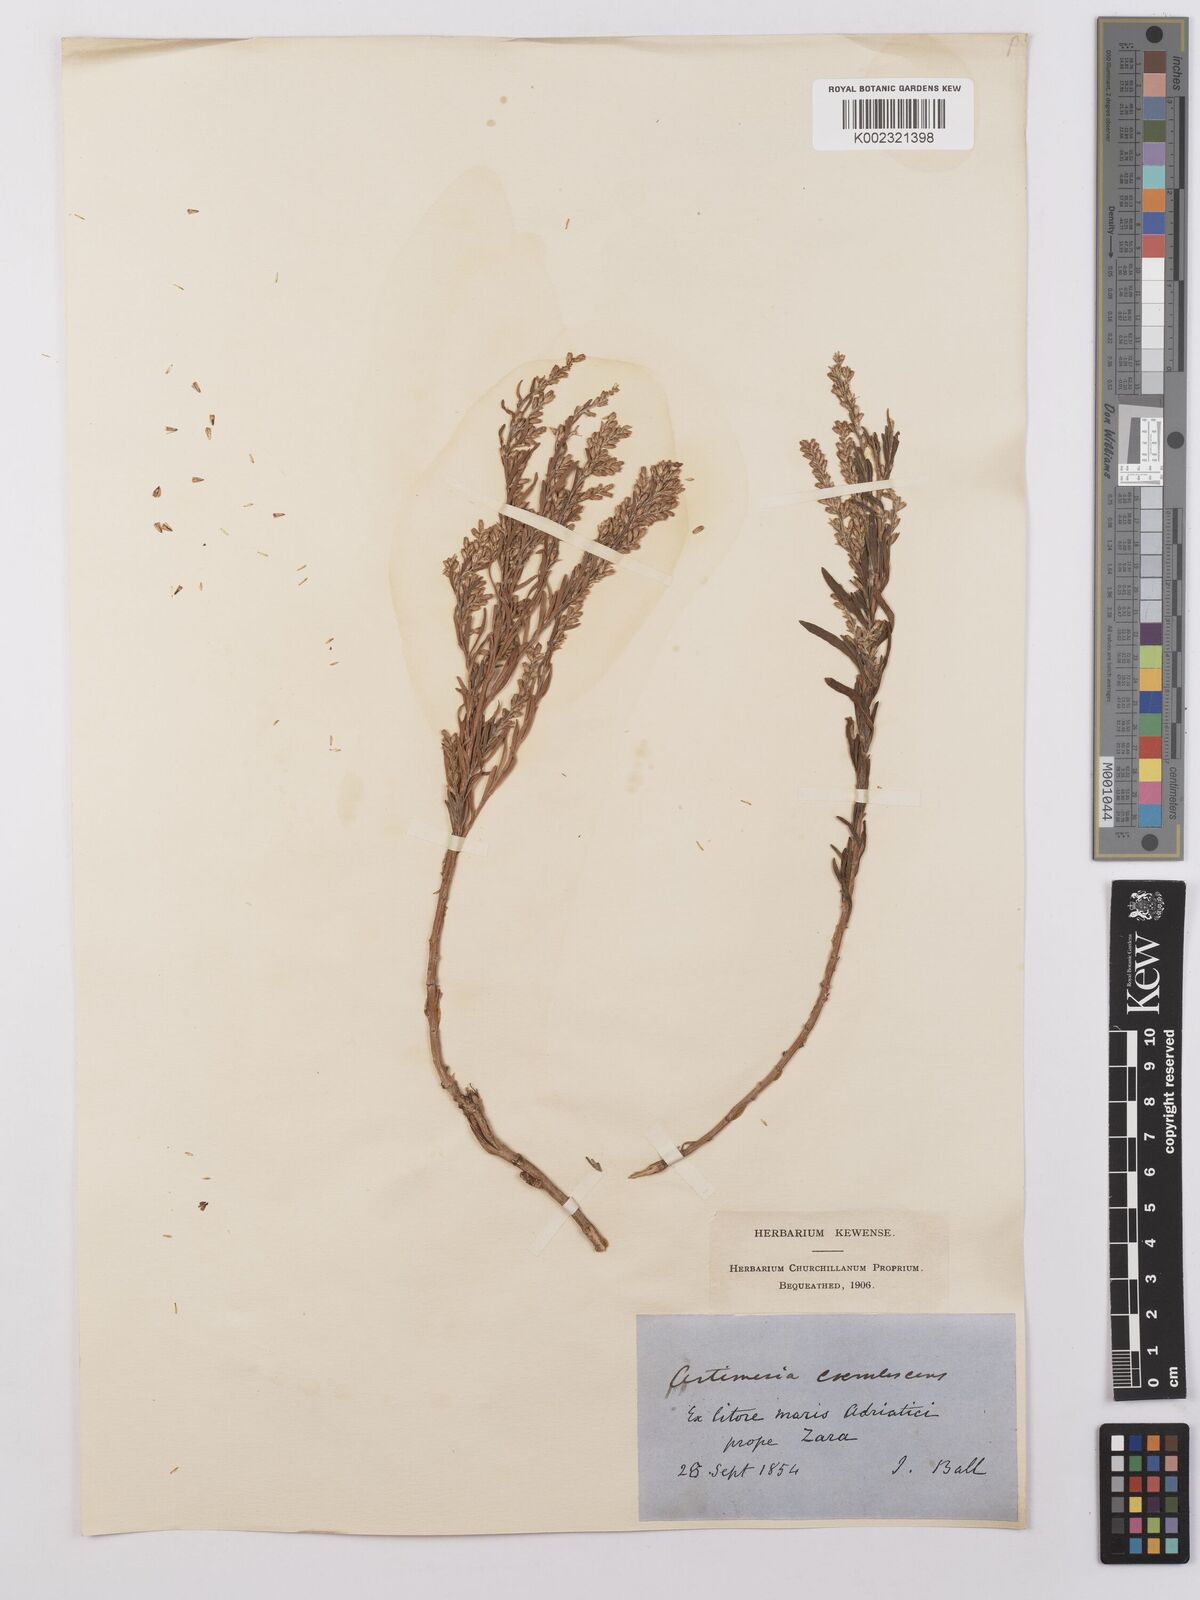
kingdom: Plantae
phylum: Tracheophyta
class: Magnoliopsida
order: Asterales
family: Asteraceae
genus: Artemisia
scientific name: Artemisia caerulescens
